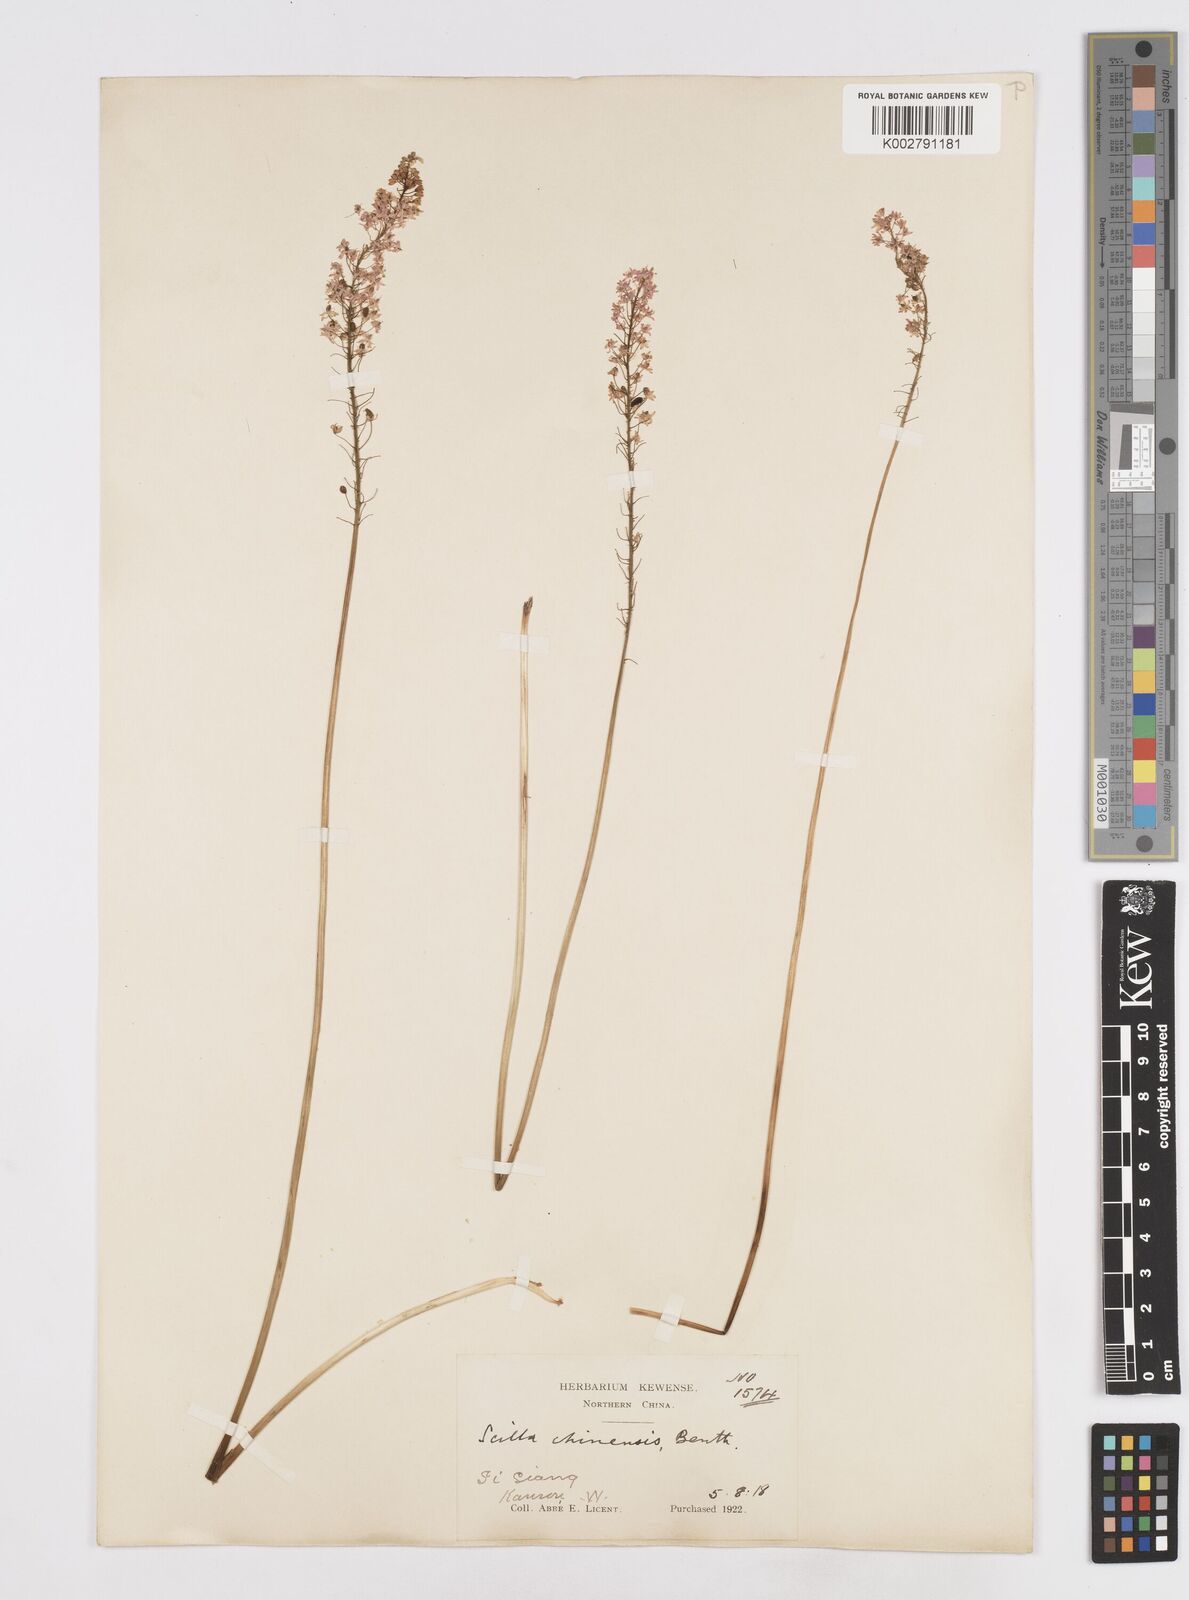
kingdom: Plantae
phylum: Tracheophyta
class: Liliopsida
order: Asparagales
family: Asparagaceae
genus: Barnardia
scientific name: Barnardia japonica
